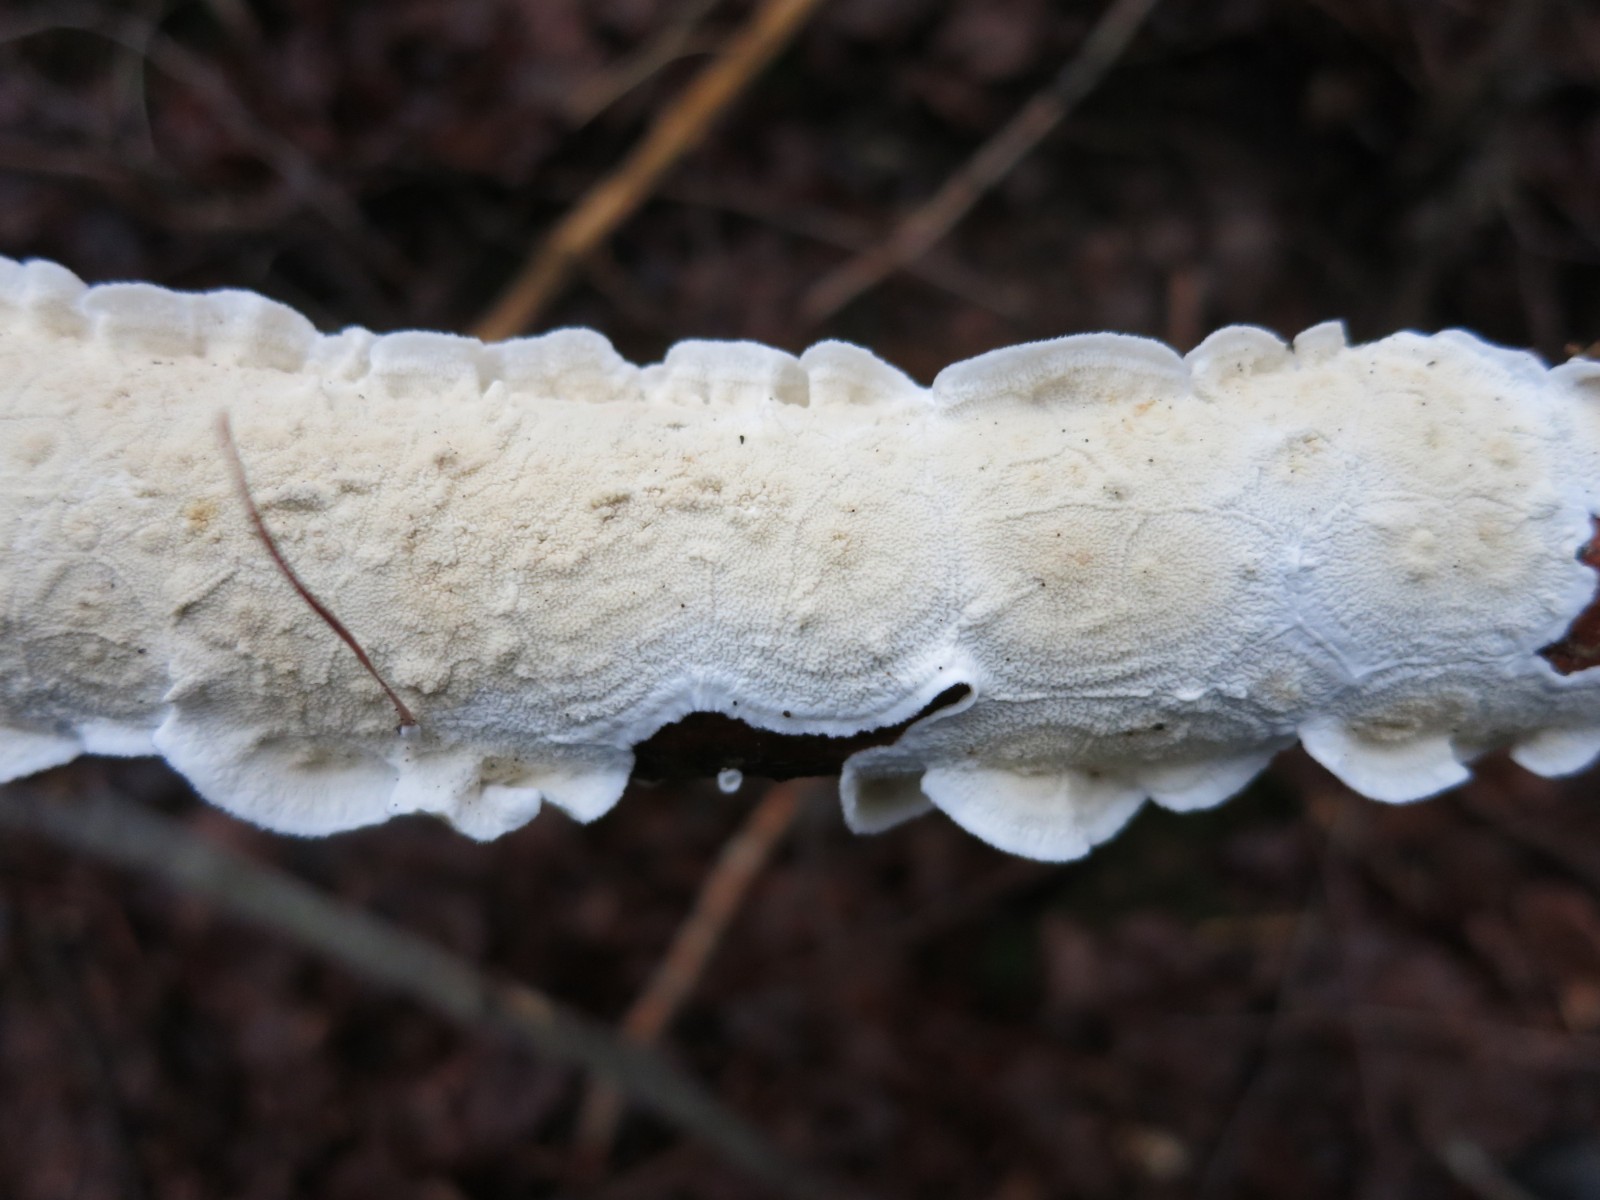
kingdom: Fungi
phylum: Basidiomycota
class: Agaricomycetes
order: Polyporales
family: Irpicaceae
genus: Byssomerulius
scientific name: Byssomerulius corium
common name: læder-åresvamp
